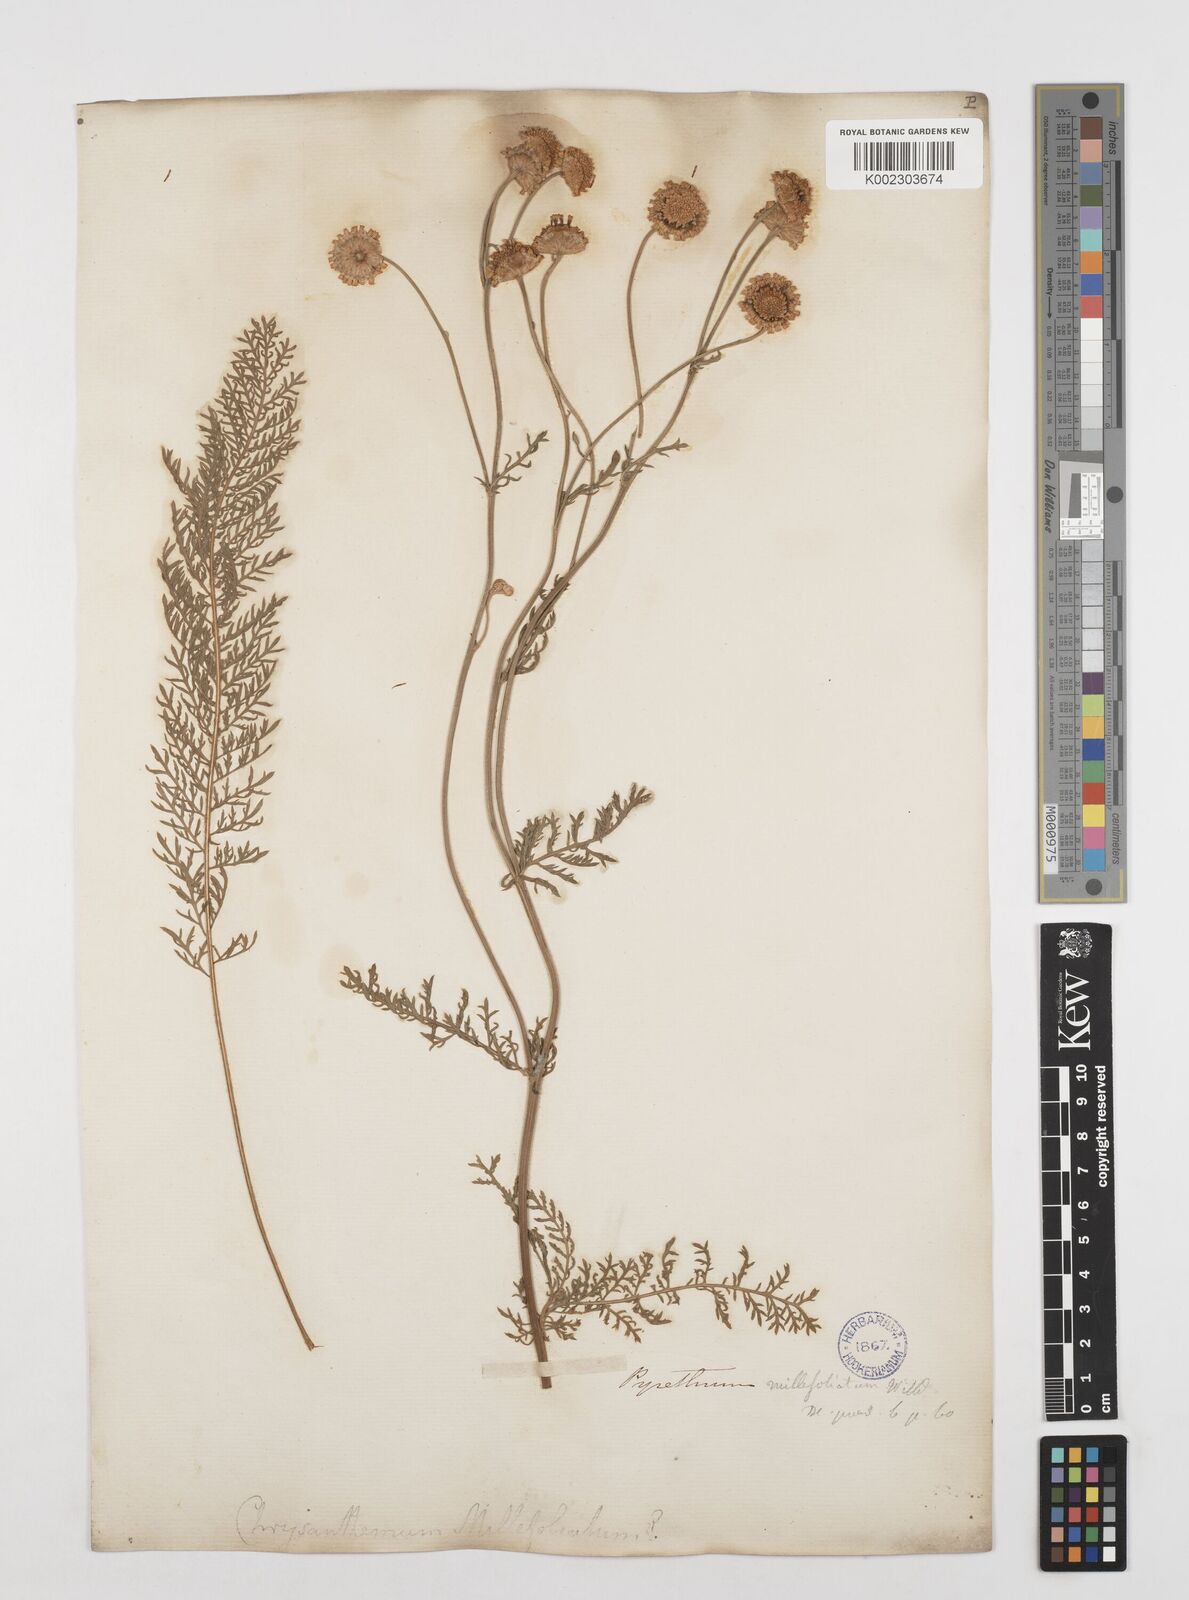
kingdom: Plantae
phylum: Tracheophyta
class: Magnoliopsida
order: Asterales
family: Asteraceae
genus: Tanacetum
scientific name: Tanacetum abrotanifolium
